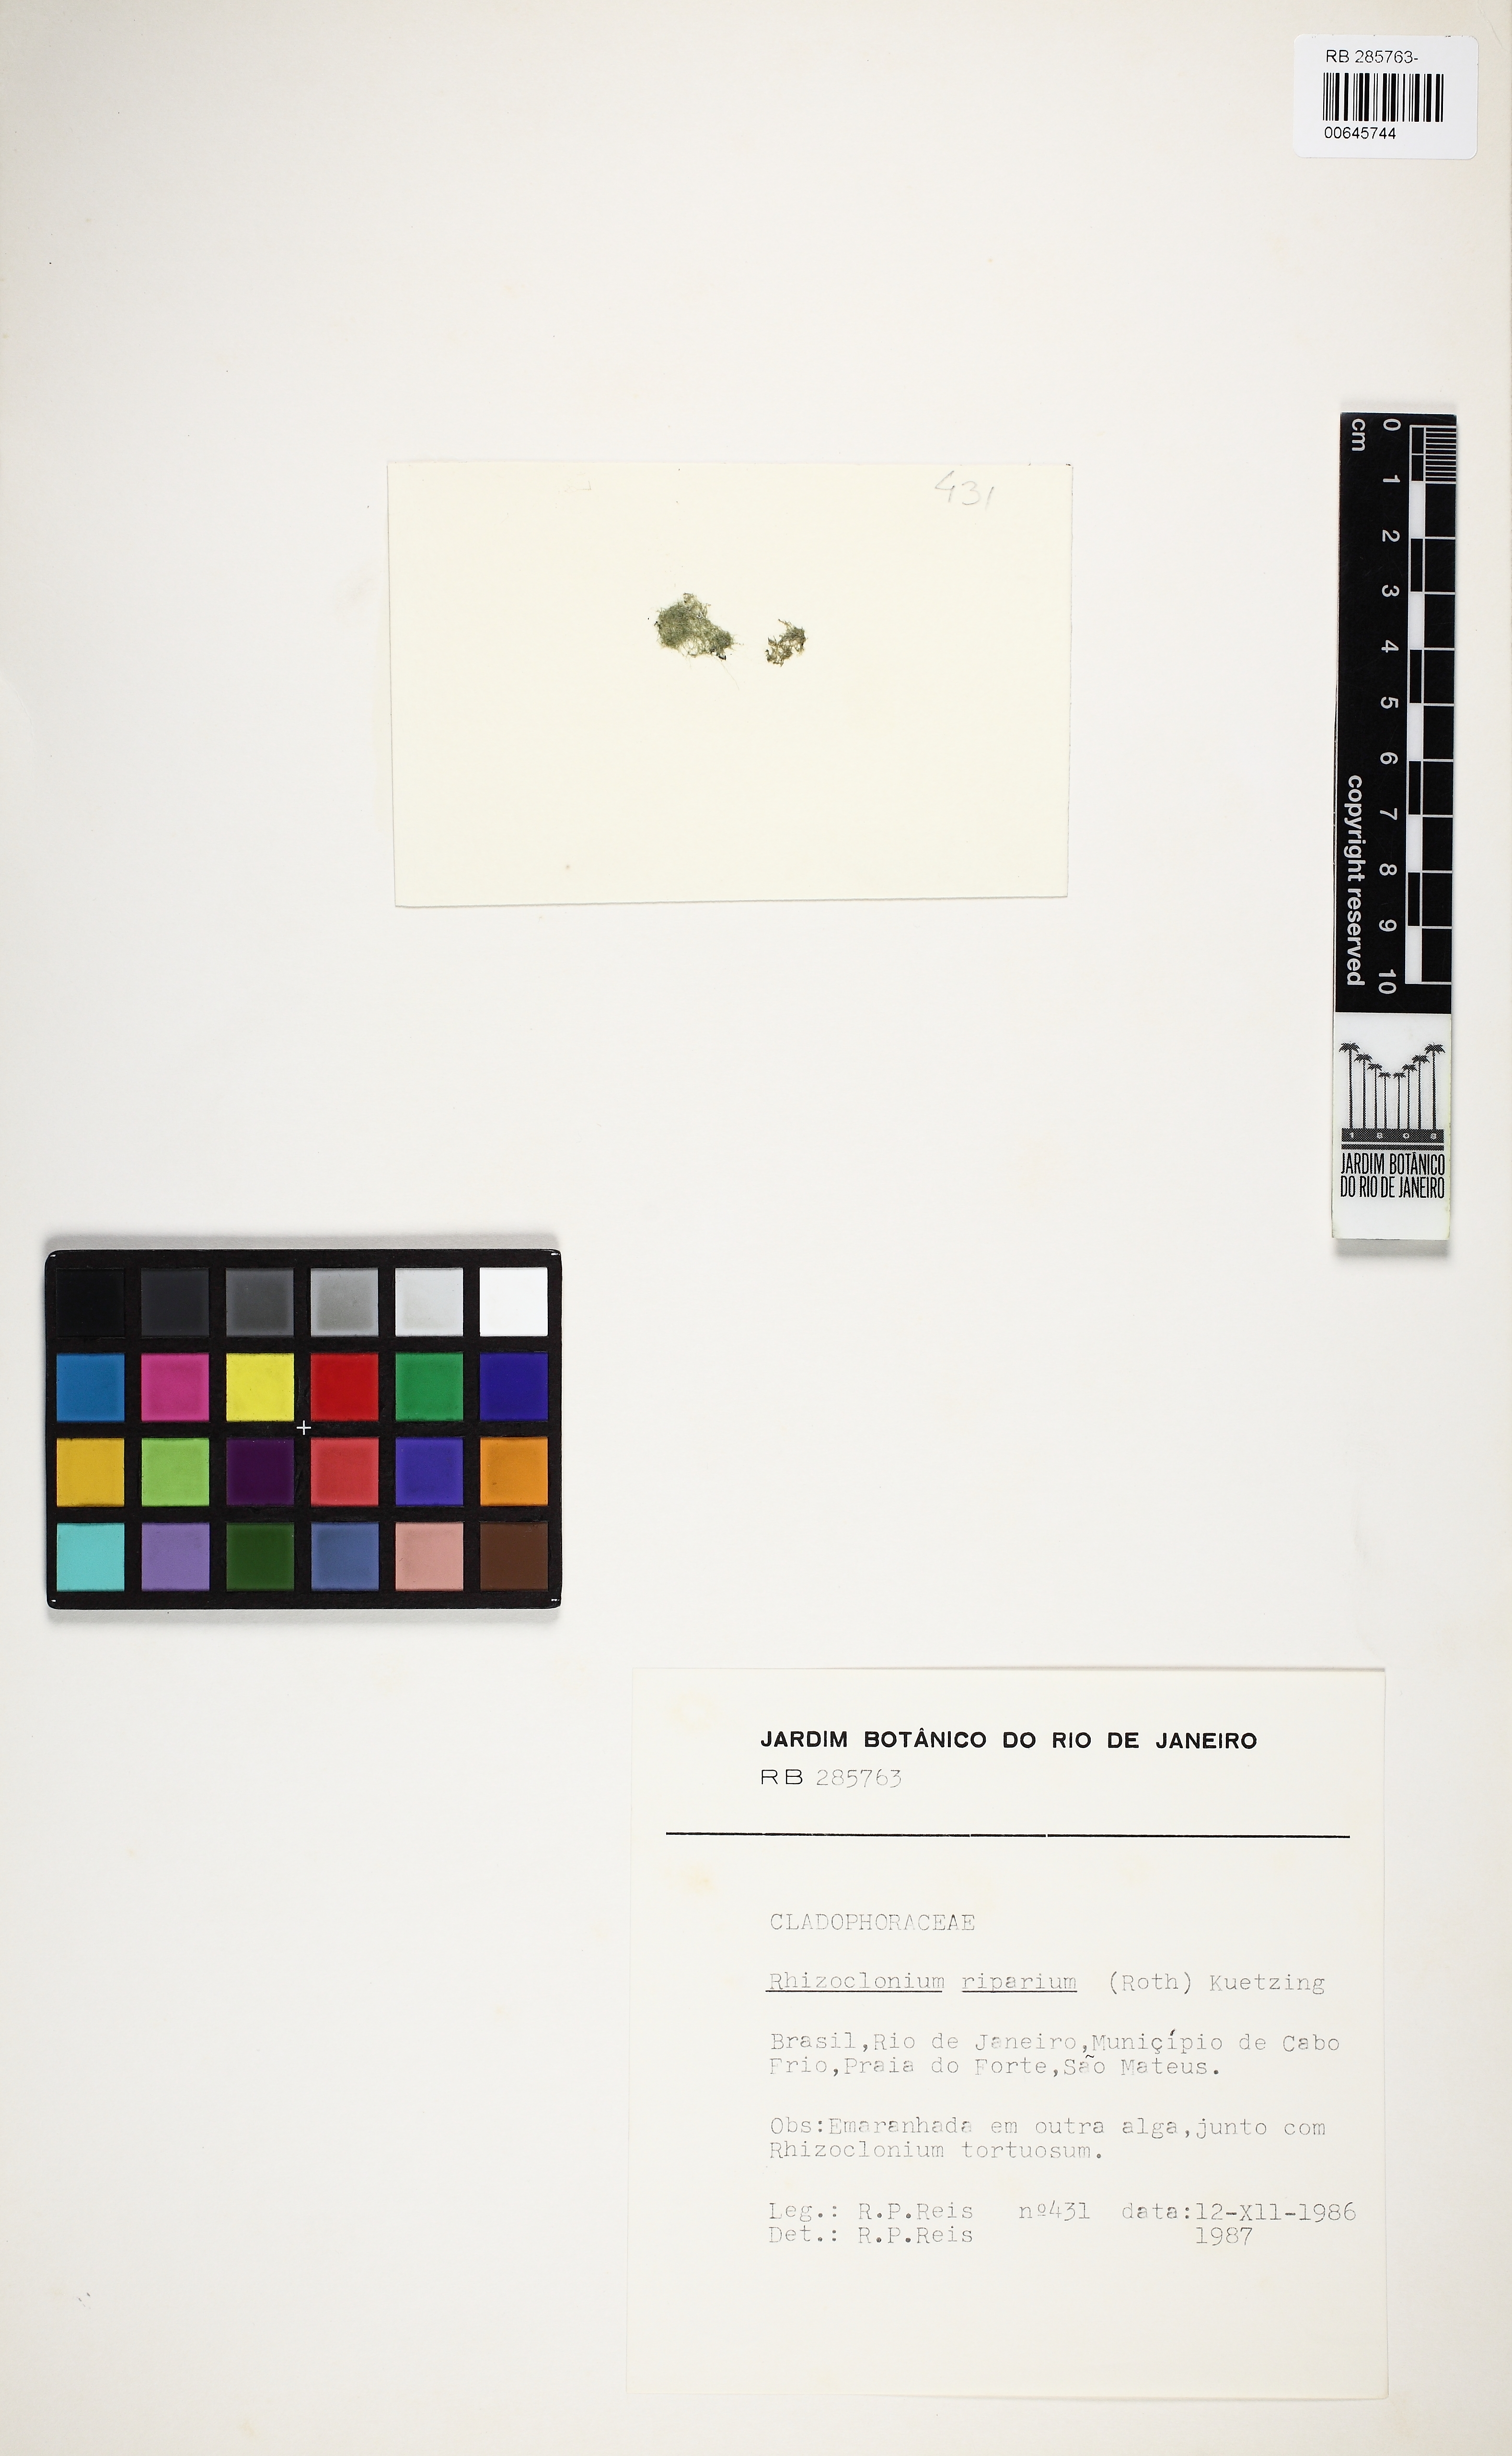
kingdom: Plantae
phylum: Chlorophyta
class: Ulvophyceae
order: Cladophorales
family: Cladophoraceae
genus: Rhizoclonium
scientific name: Rhizoclonium riparium
